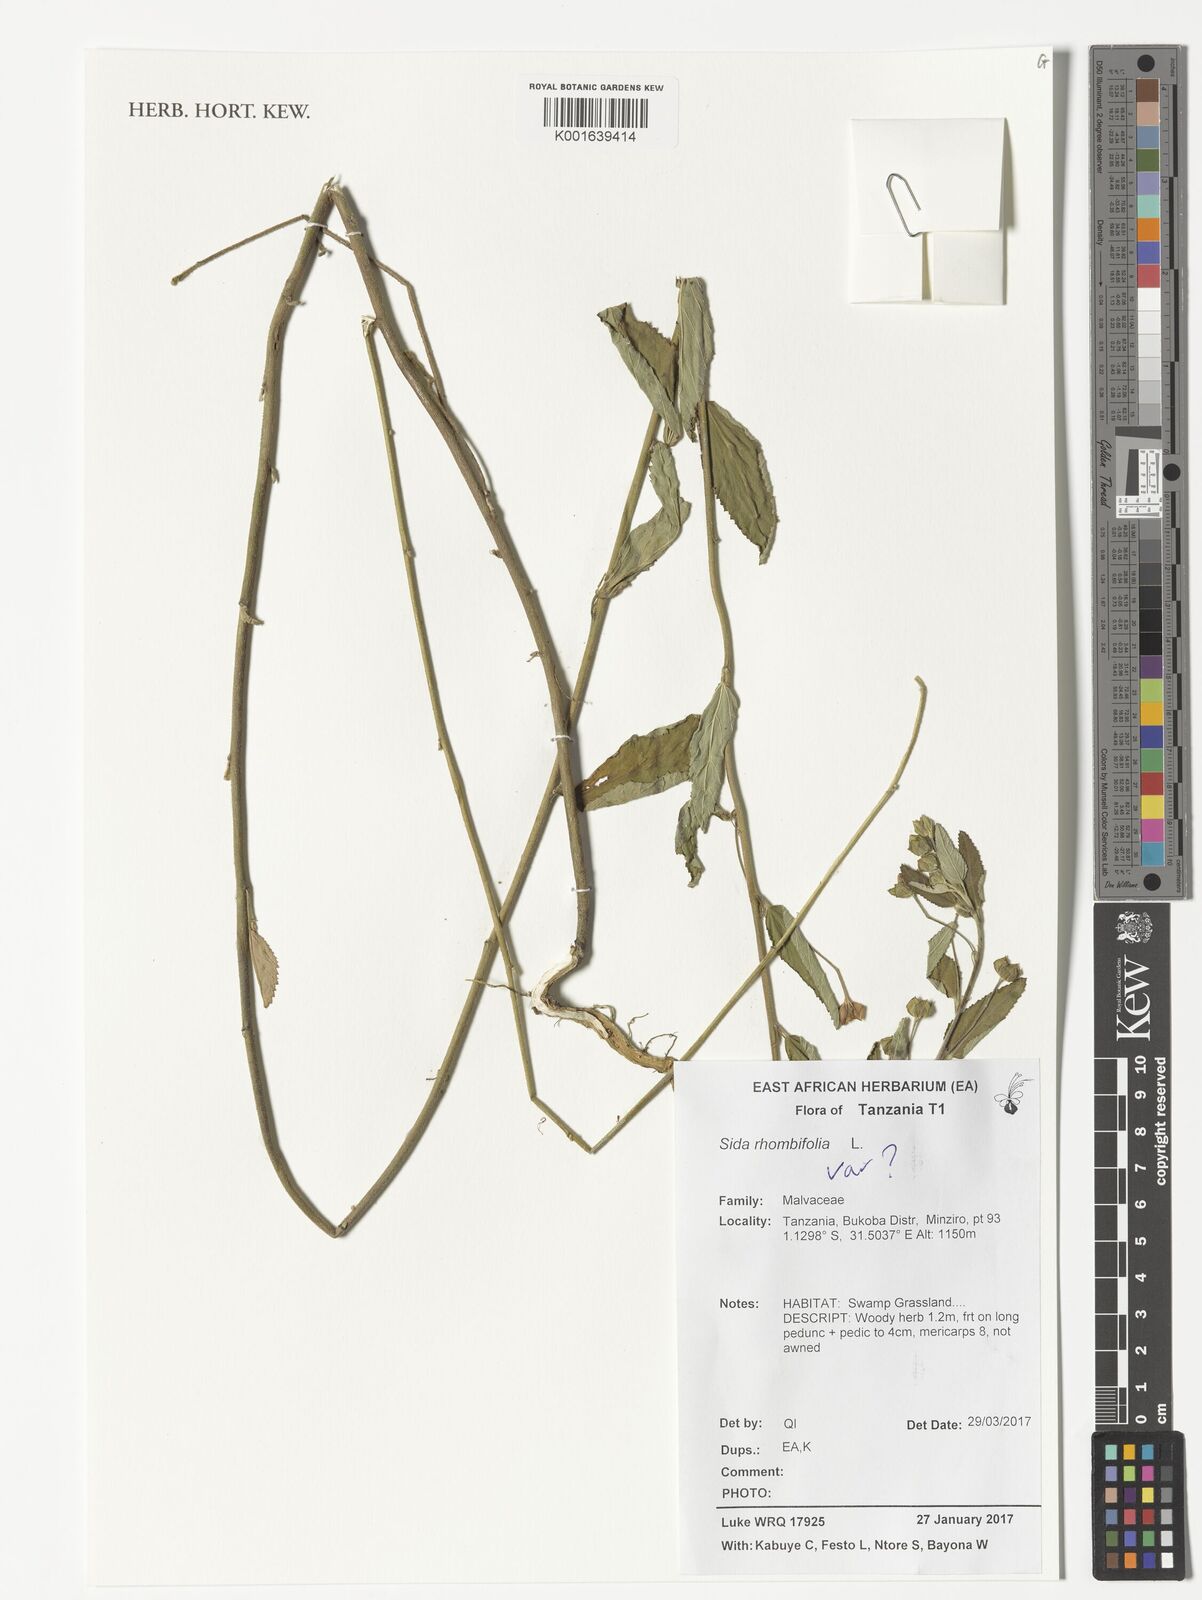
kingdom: Plantae
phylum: Tracheophyta
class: Magnoliopsida
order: Malvales
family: Malvaceae
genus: Sida
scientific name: Sida rhombifolia
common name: Queensland-hemp
